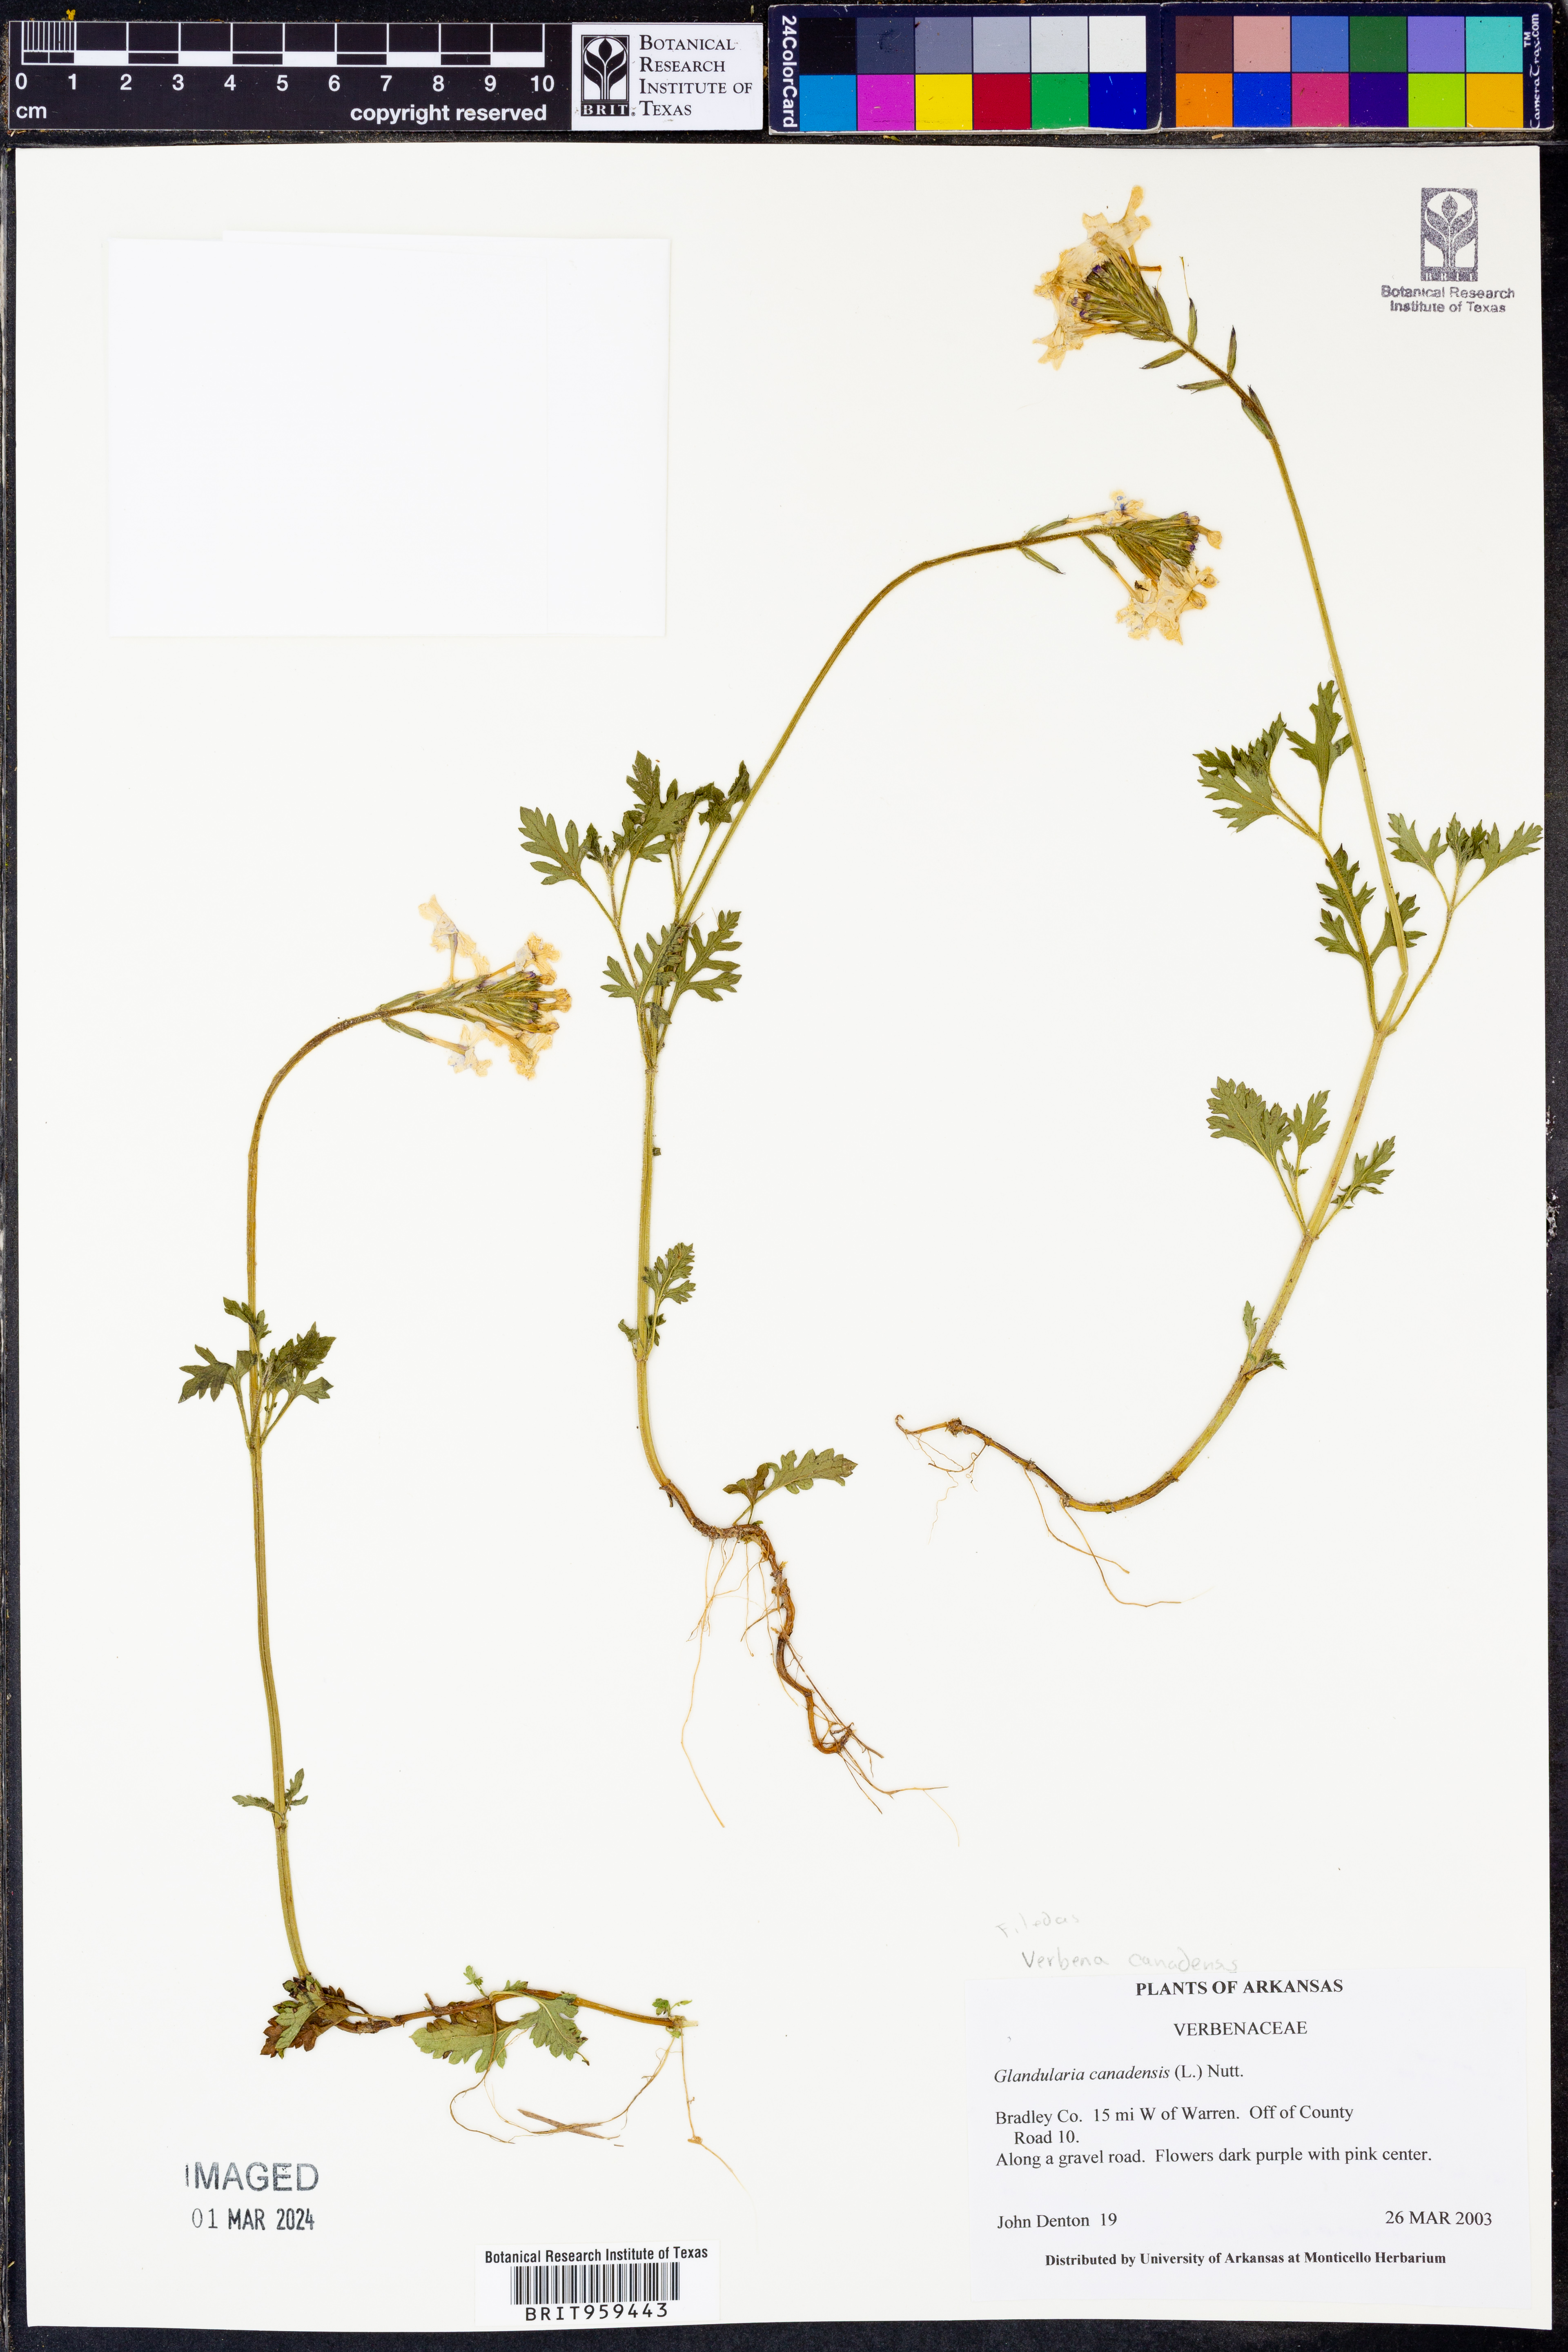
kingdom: Plantae
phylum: Tracheophyta
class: Magnoliopsida
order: Lamiales
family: Verbenaceae
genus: Verbena
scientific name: Verbena canadensis
